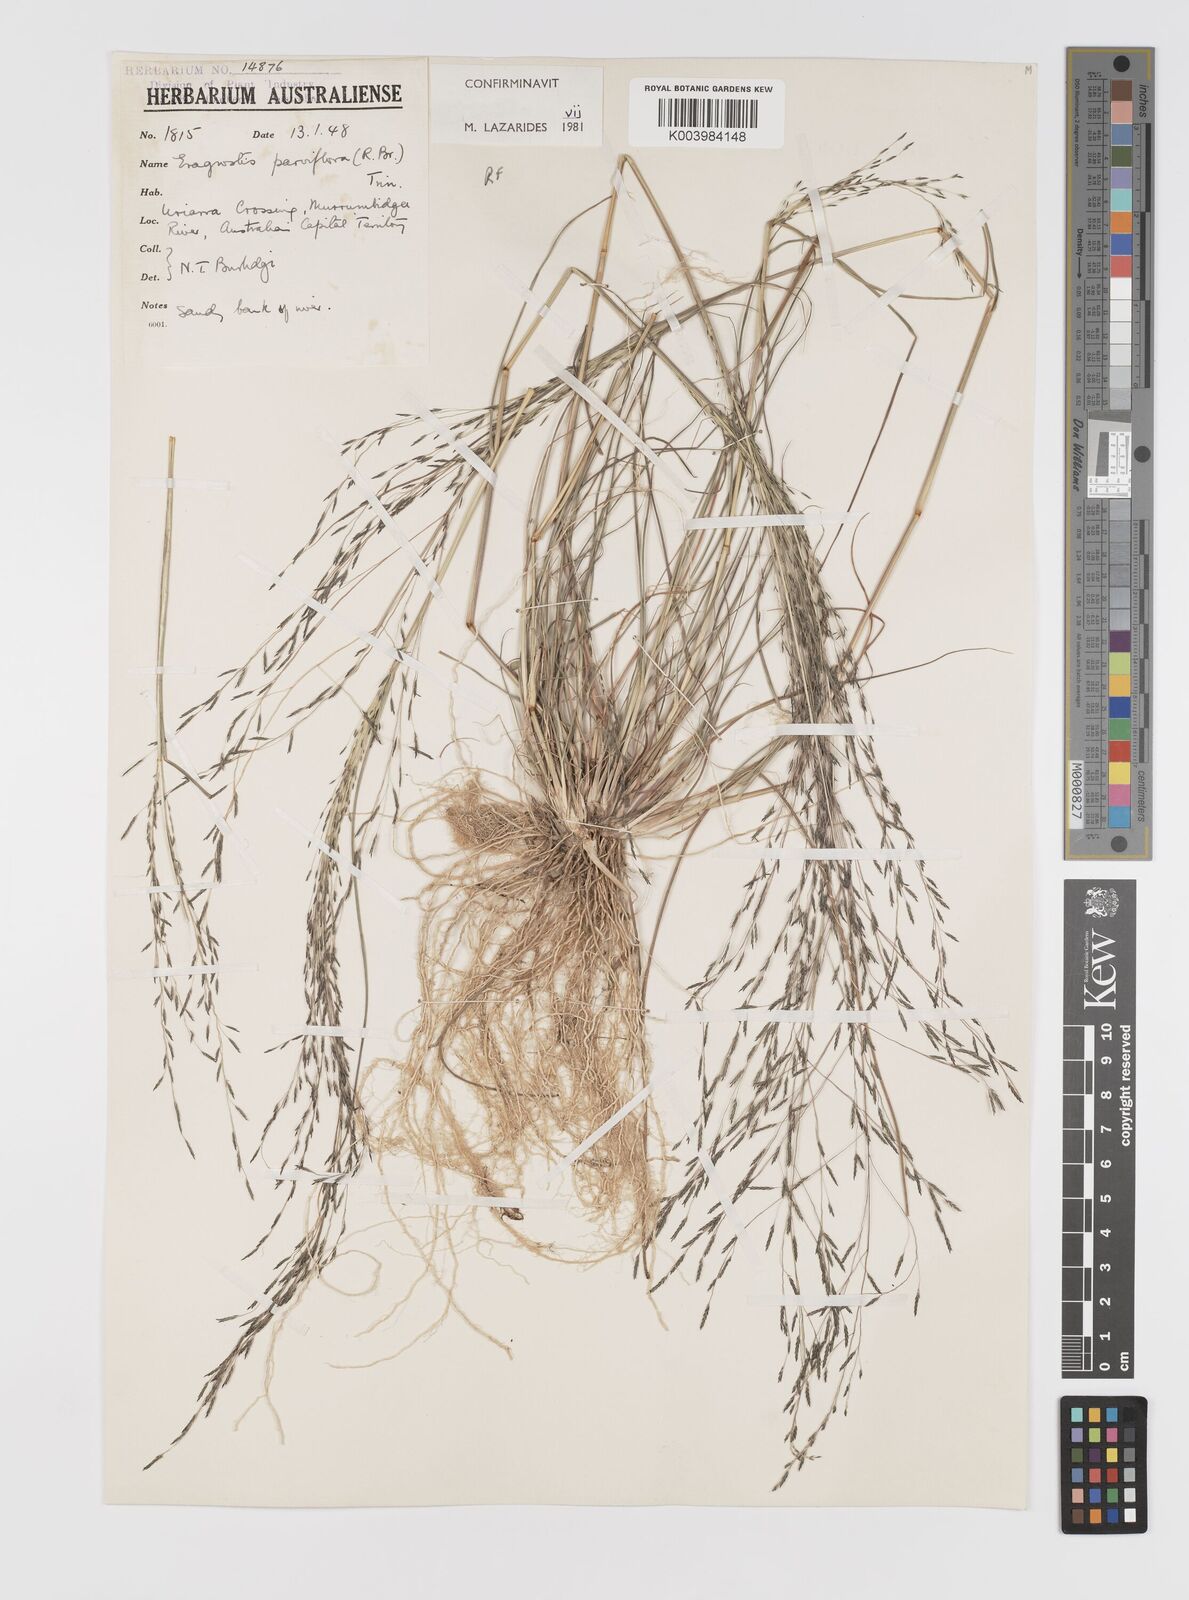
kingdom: Plantae
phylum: Tracheophyta
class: Liliopsida
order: Poales
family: Poaceae
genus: Eragrostis
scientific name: Eragrostis parviflora
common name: Weeping love-grass
